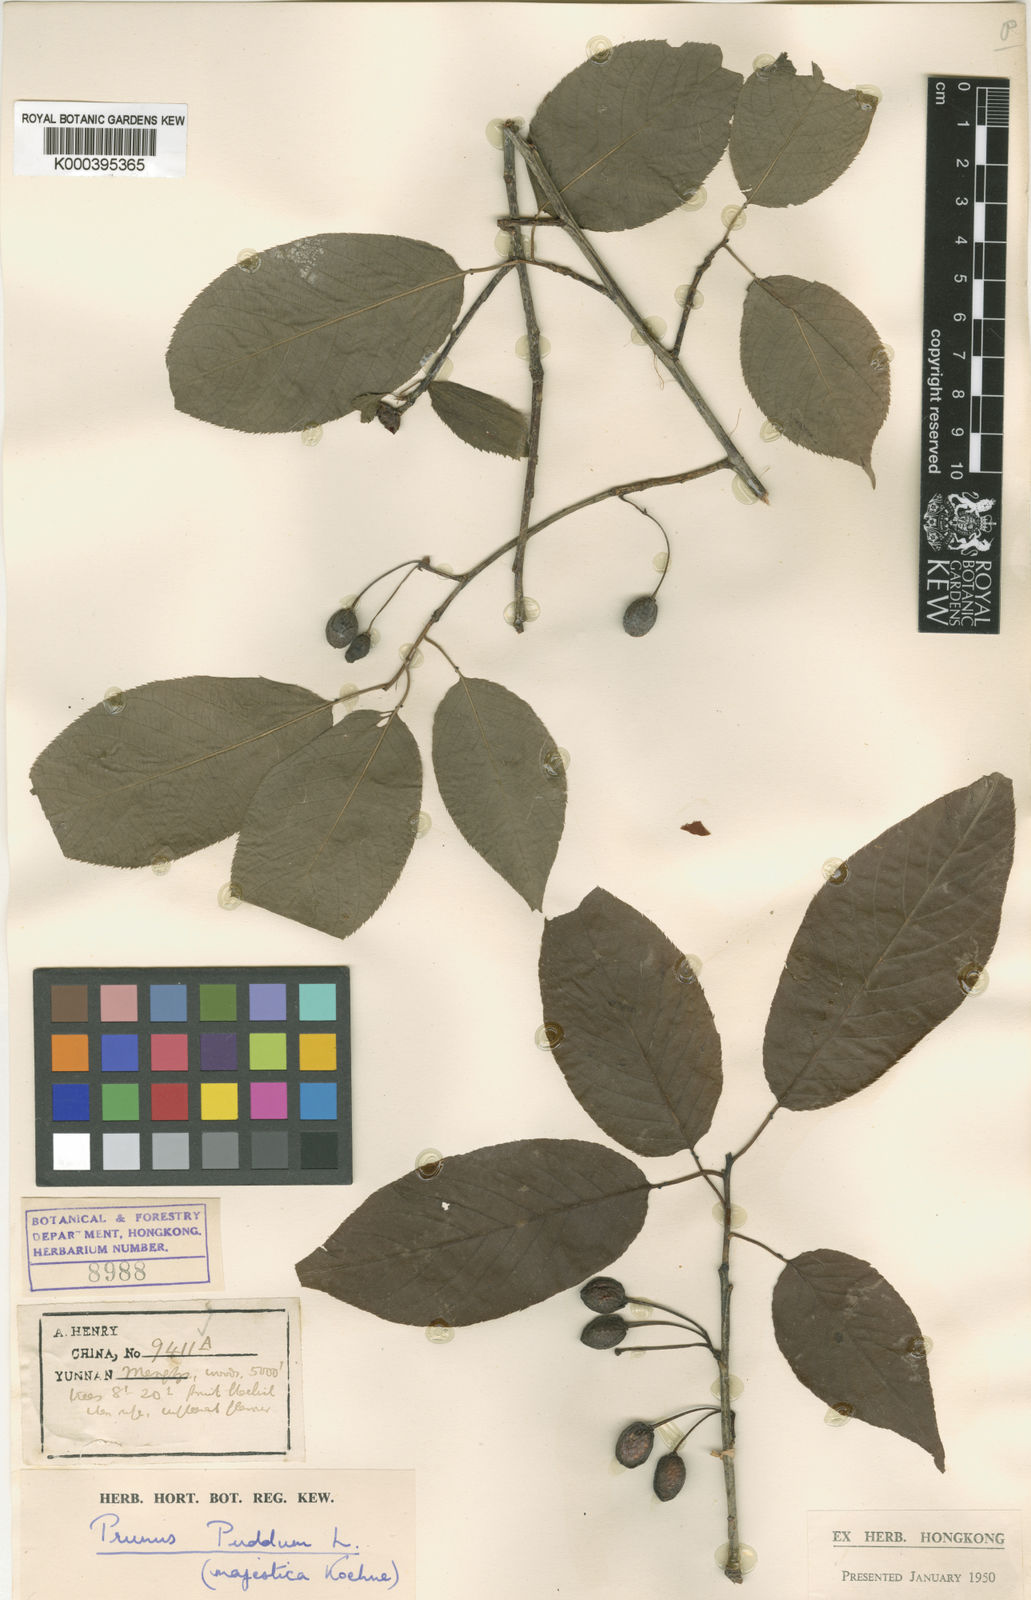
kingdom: Plantae
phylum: Tracheophyta
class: Magnoliopsida
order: Rosales
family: Rosaceae
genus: Prunus
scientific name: Prunus cerasoides
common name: Wild himalayan cherry
